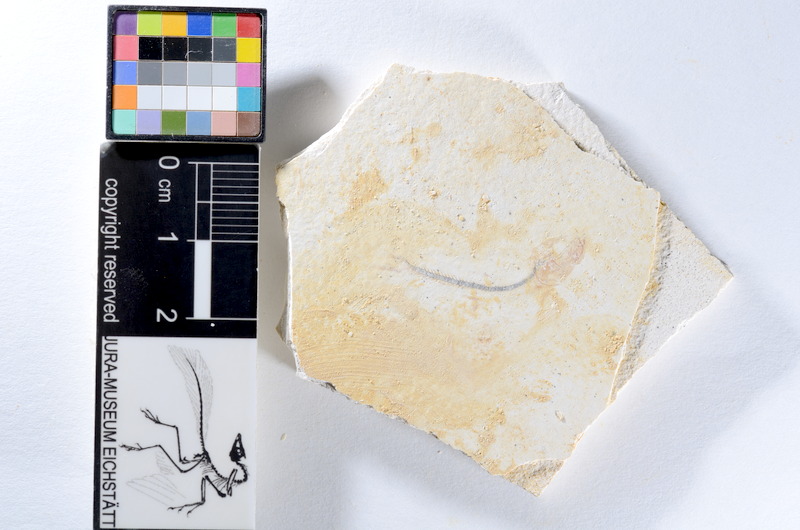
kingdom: Animalia
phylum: Chordata
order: Salmoniformes
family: Orthogonikleithridae
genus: Orthogonikleithrus
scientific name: Orthogonikleithrus hoelli
